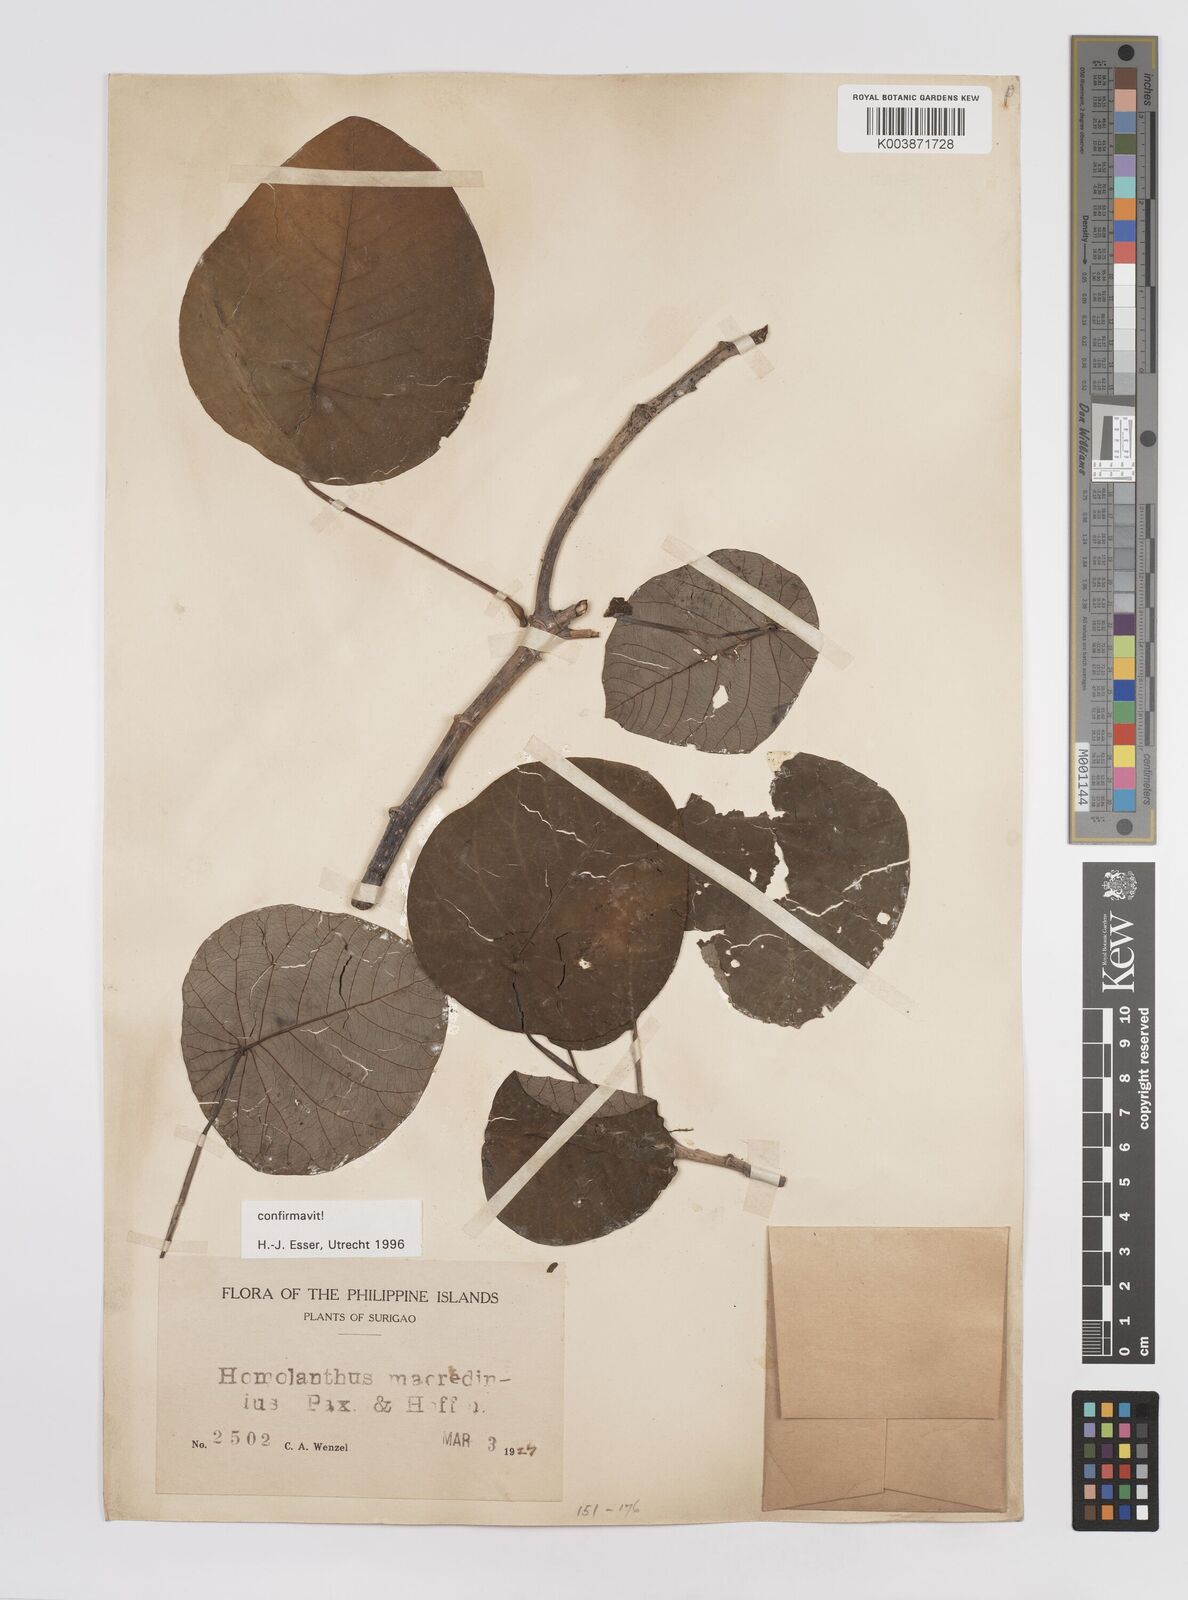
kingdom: Plantae
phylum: Tracheophyta
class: Magnoliopsida
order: Malpighiales
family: Euphorbiaceae
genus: Homalanthus
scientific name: Homalanthus macradenius
